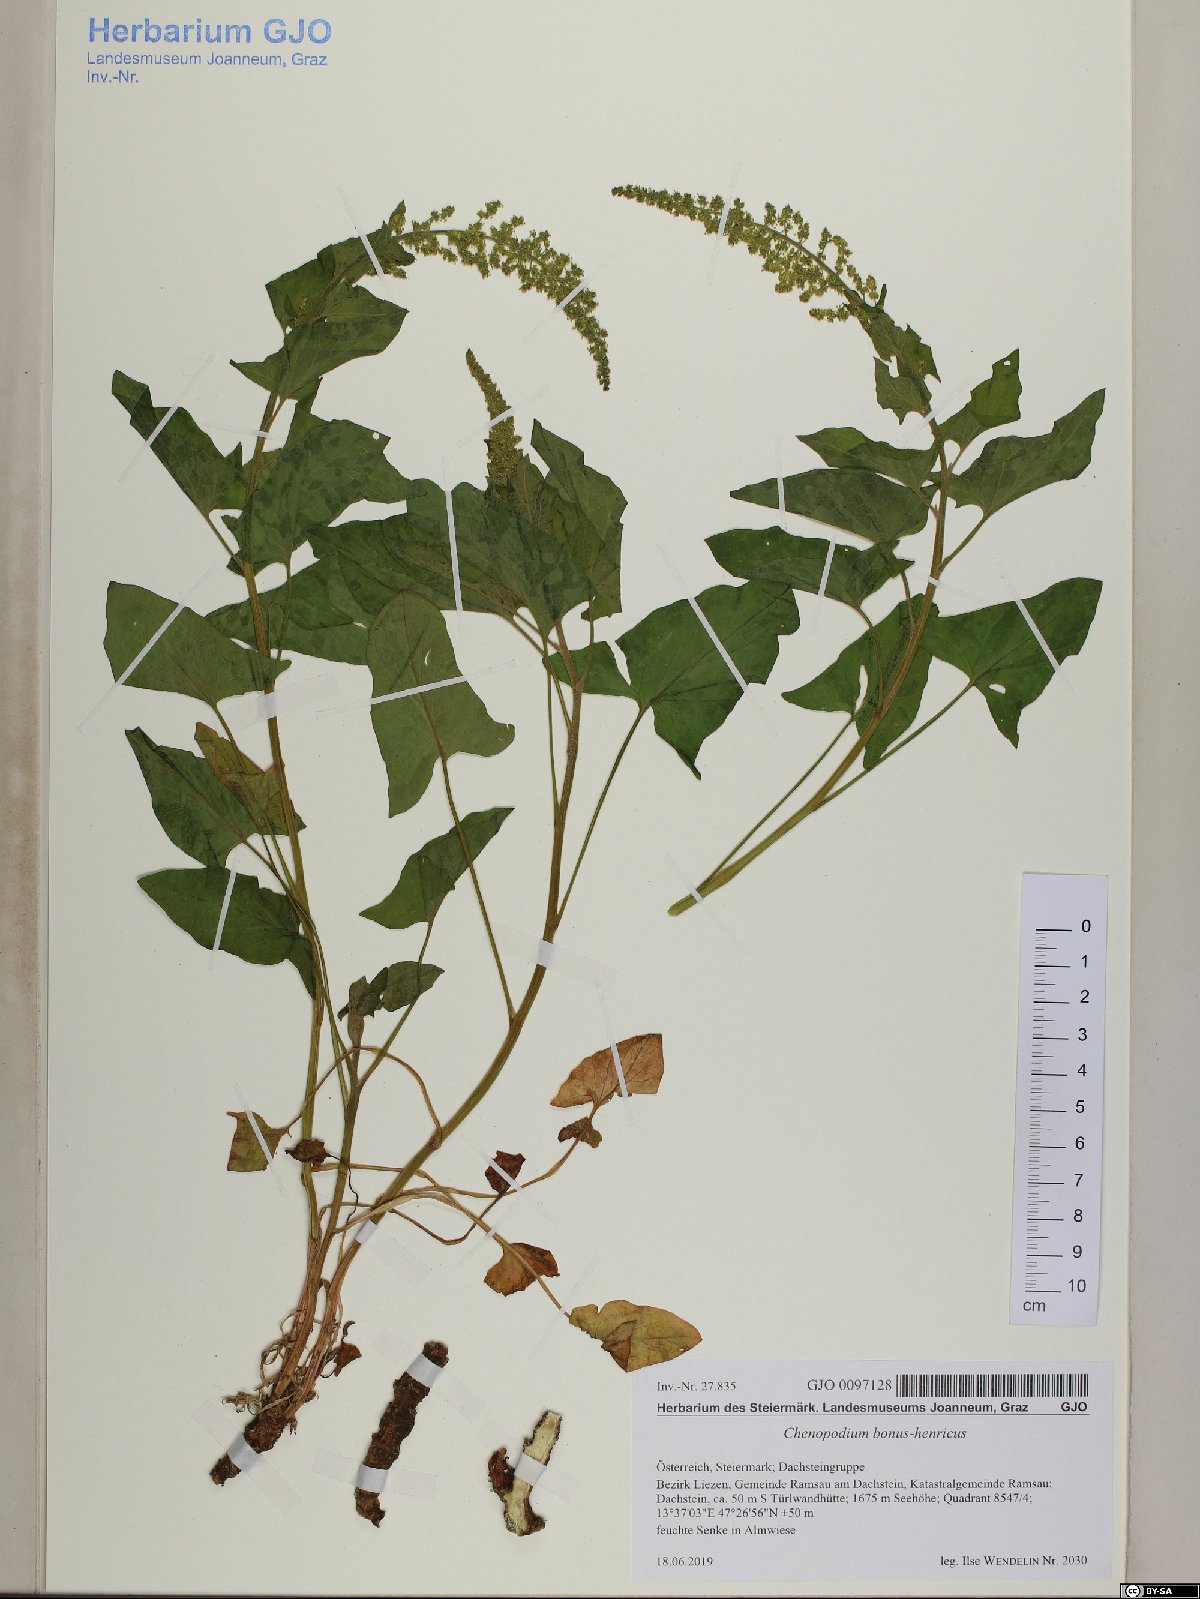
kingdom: Plantae
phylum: Tracheophyta
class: Magnoliopsida
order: Caryophyllales
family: Amaranthaceae
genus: Blitum
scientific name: Blitum bonus-henricus
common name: Good king henry
